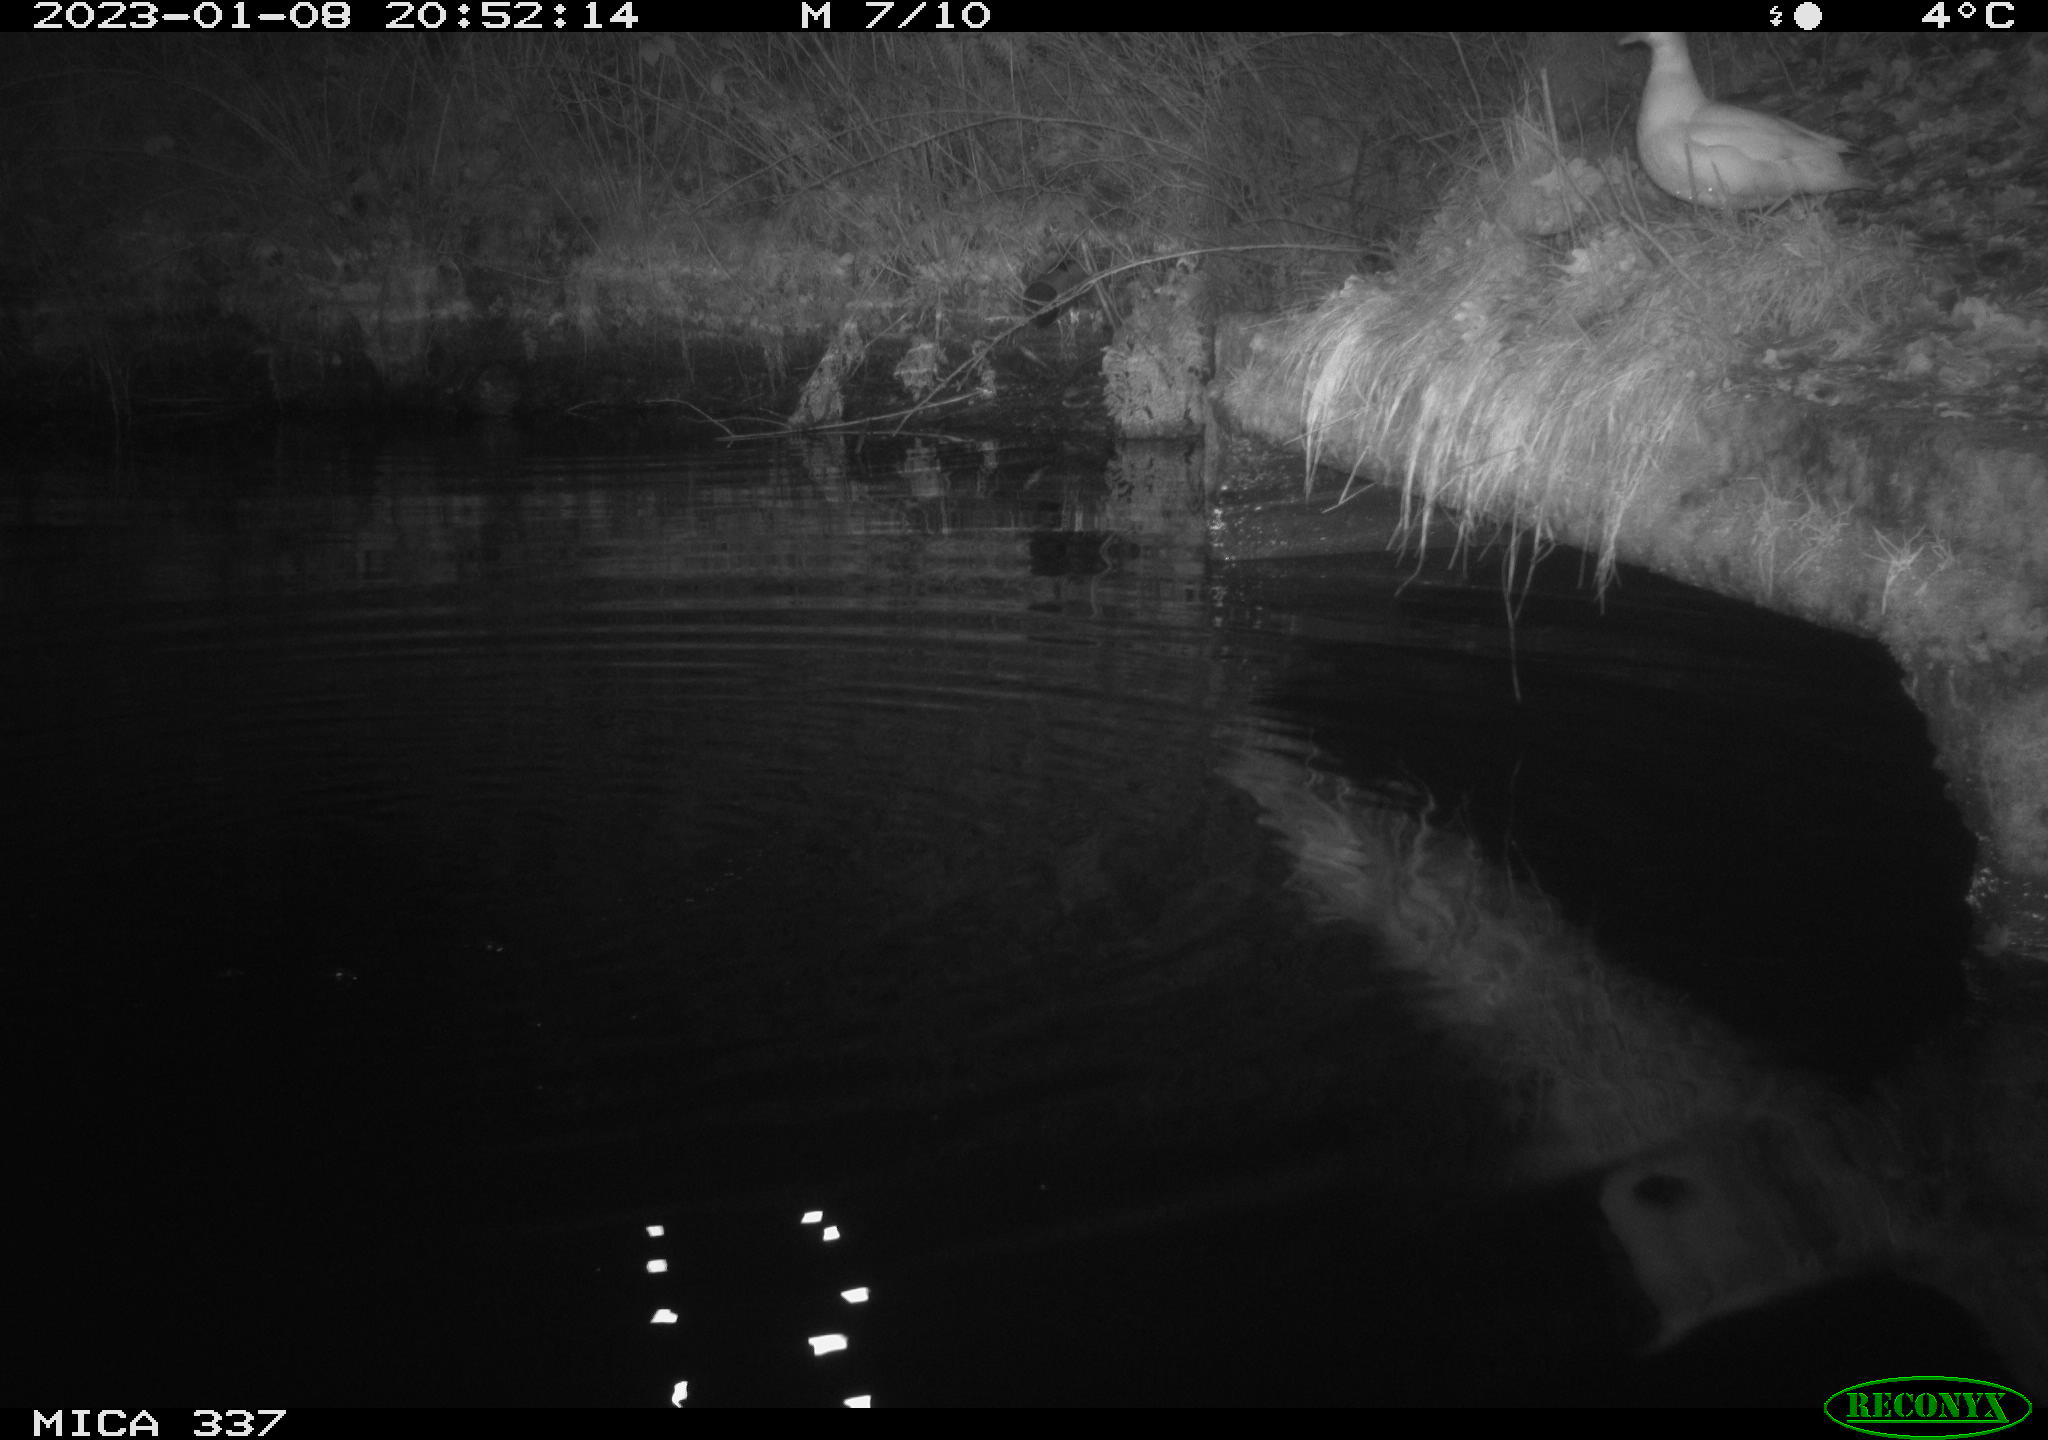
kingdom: Animalia
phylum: Chordata
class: Aves
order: Anseriformes
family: Anatidae
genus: Anas
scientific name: Anas
